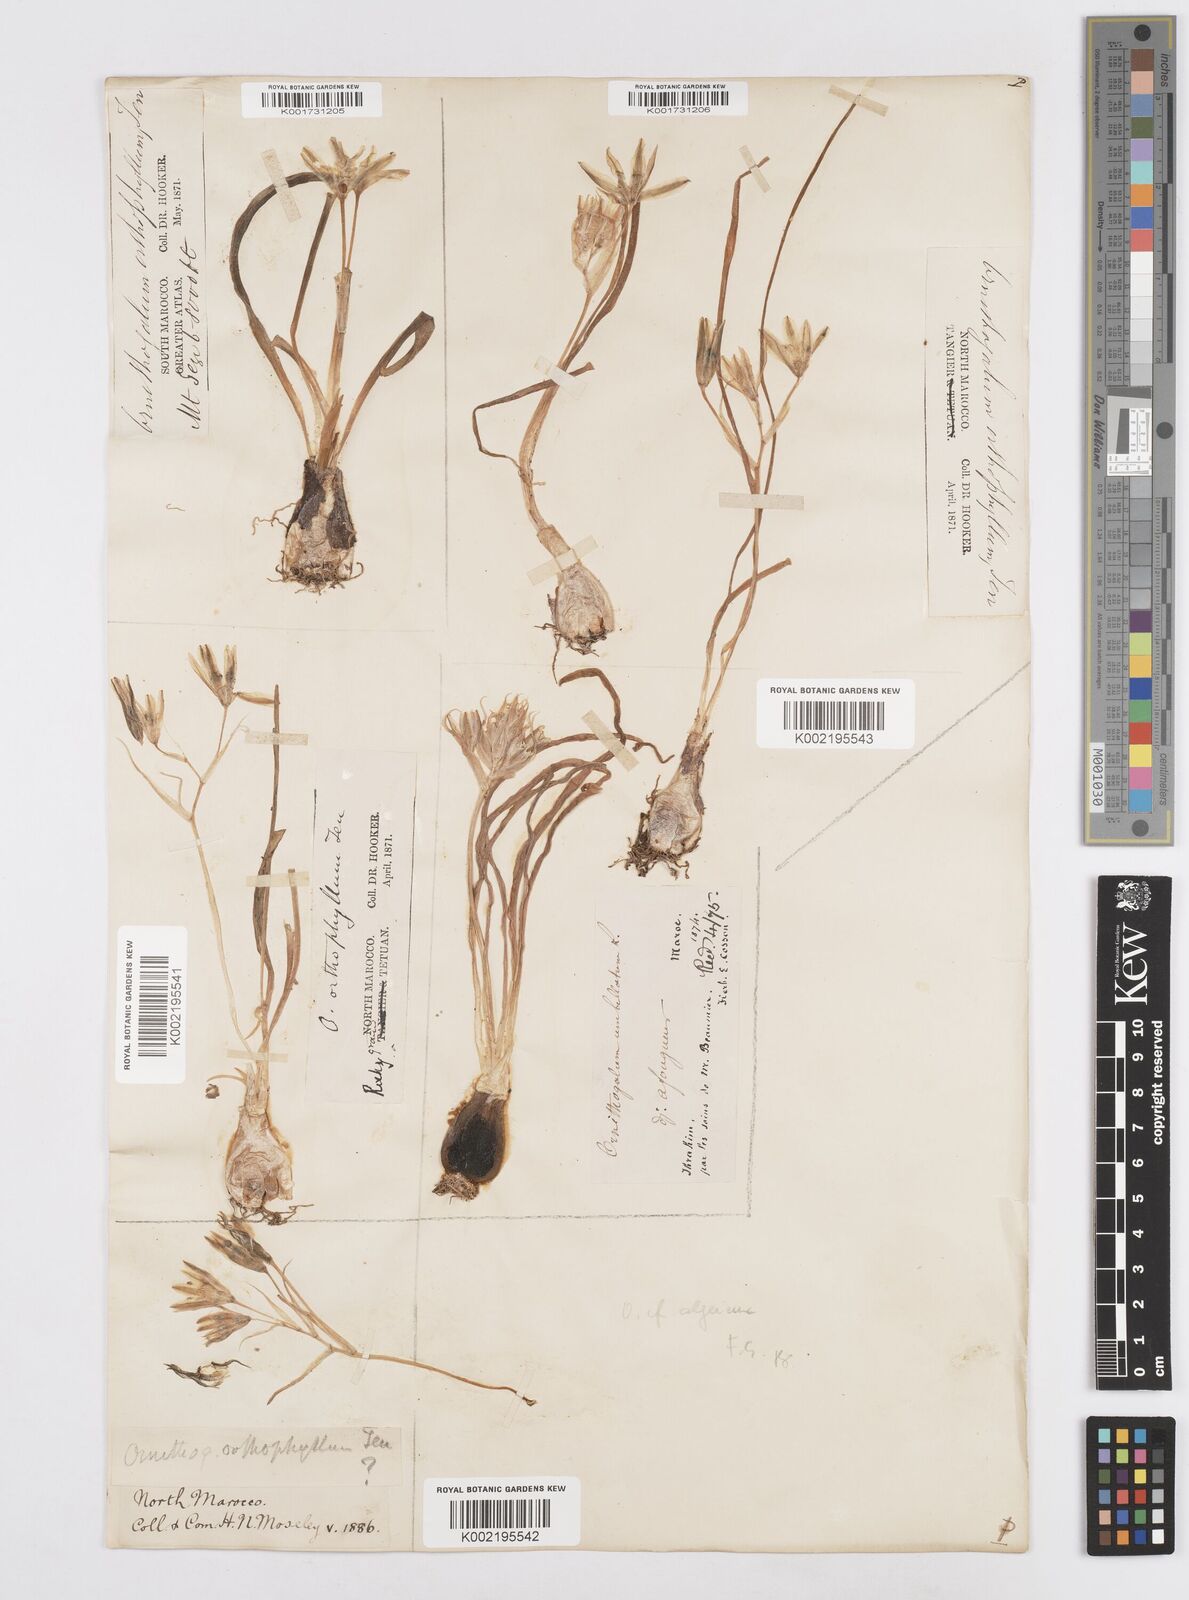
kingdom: Plantae
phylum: Tracheophyta
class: Liliopsida
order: Asparagales
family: Asparagaceae
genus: Ornithogalum
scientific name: Ornithogalum baeticum
